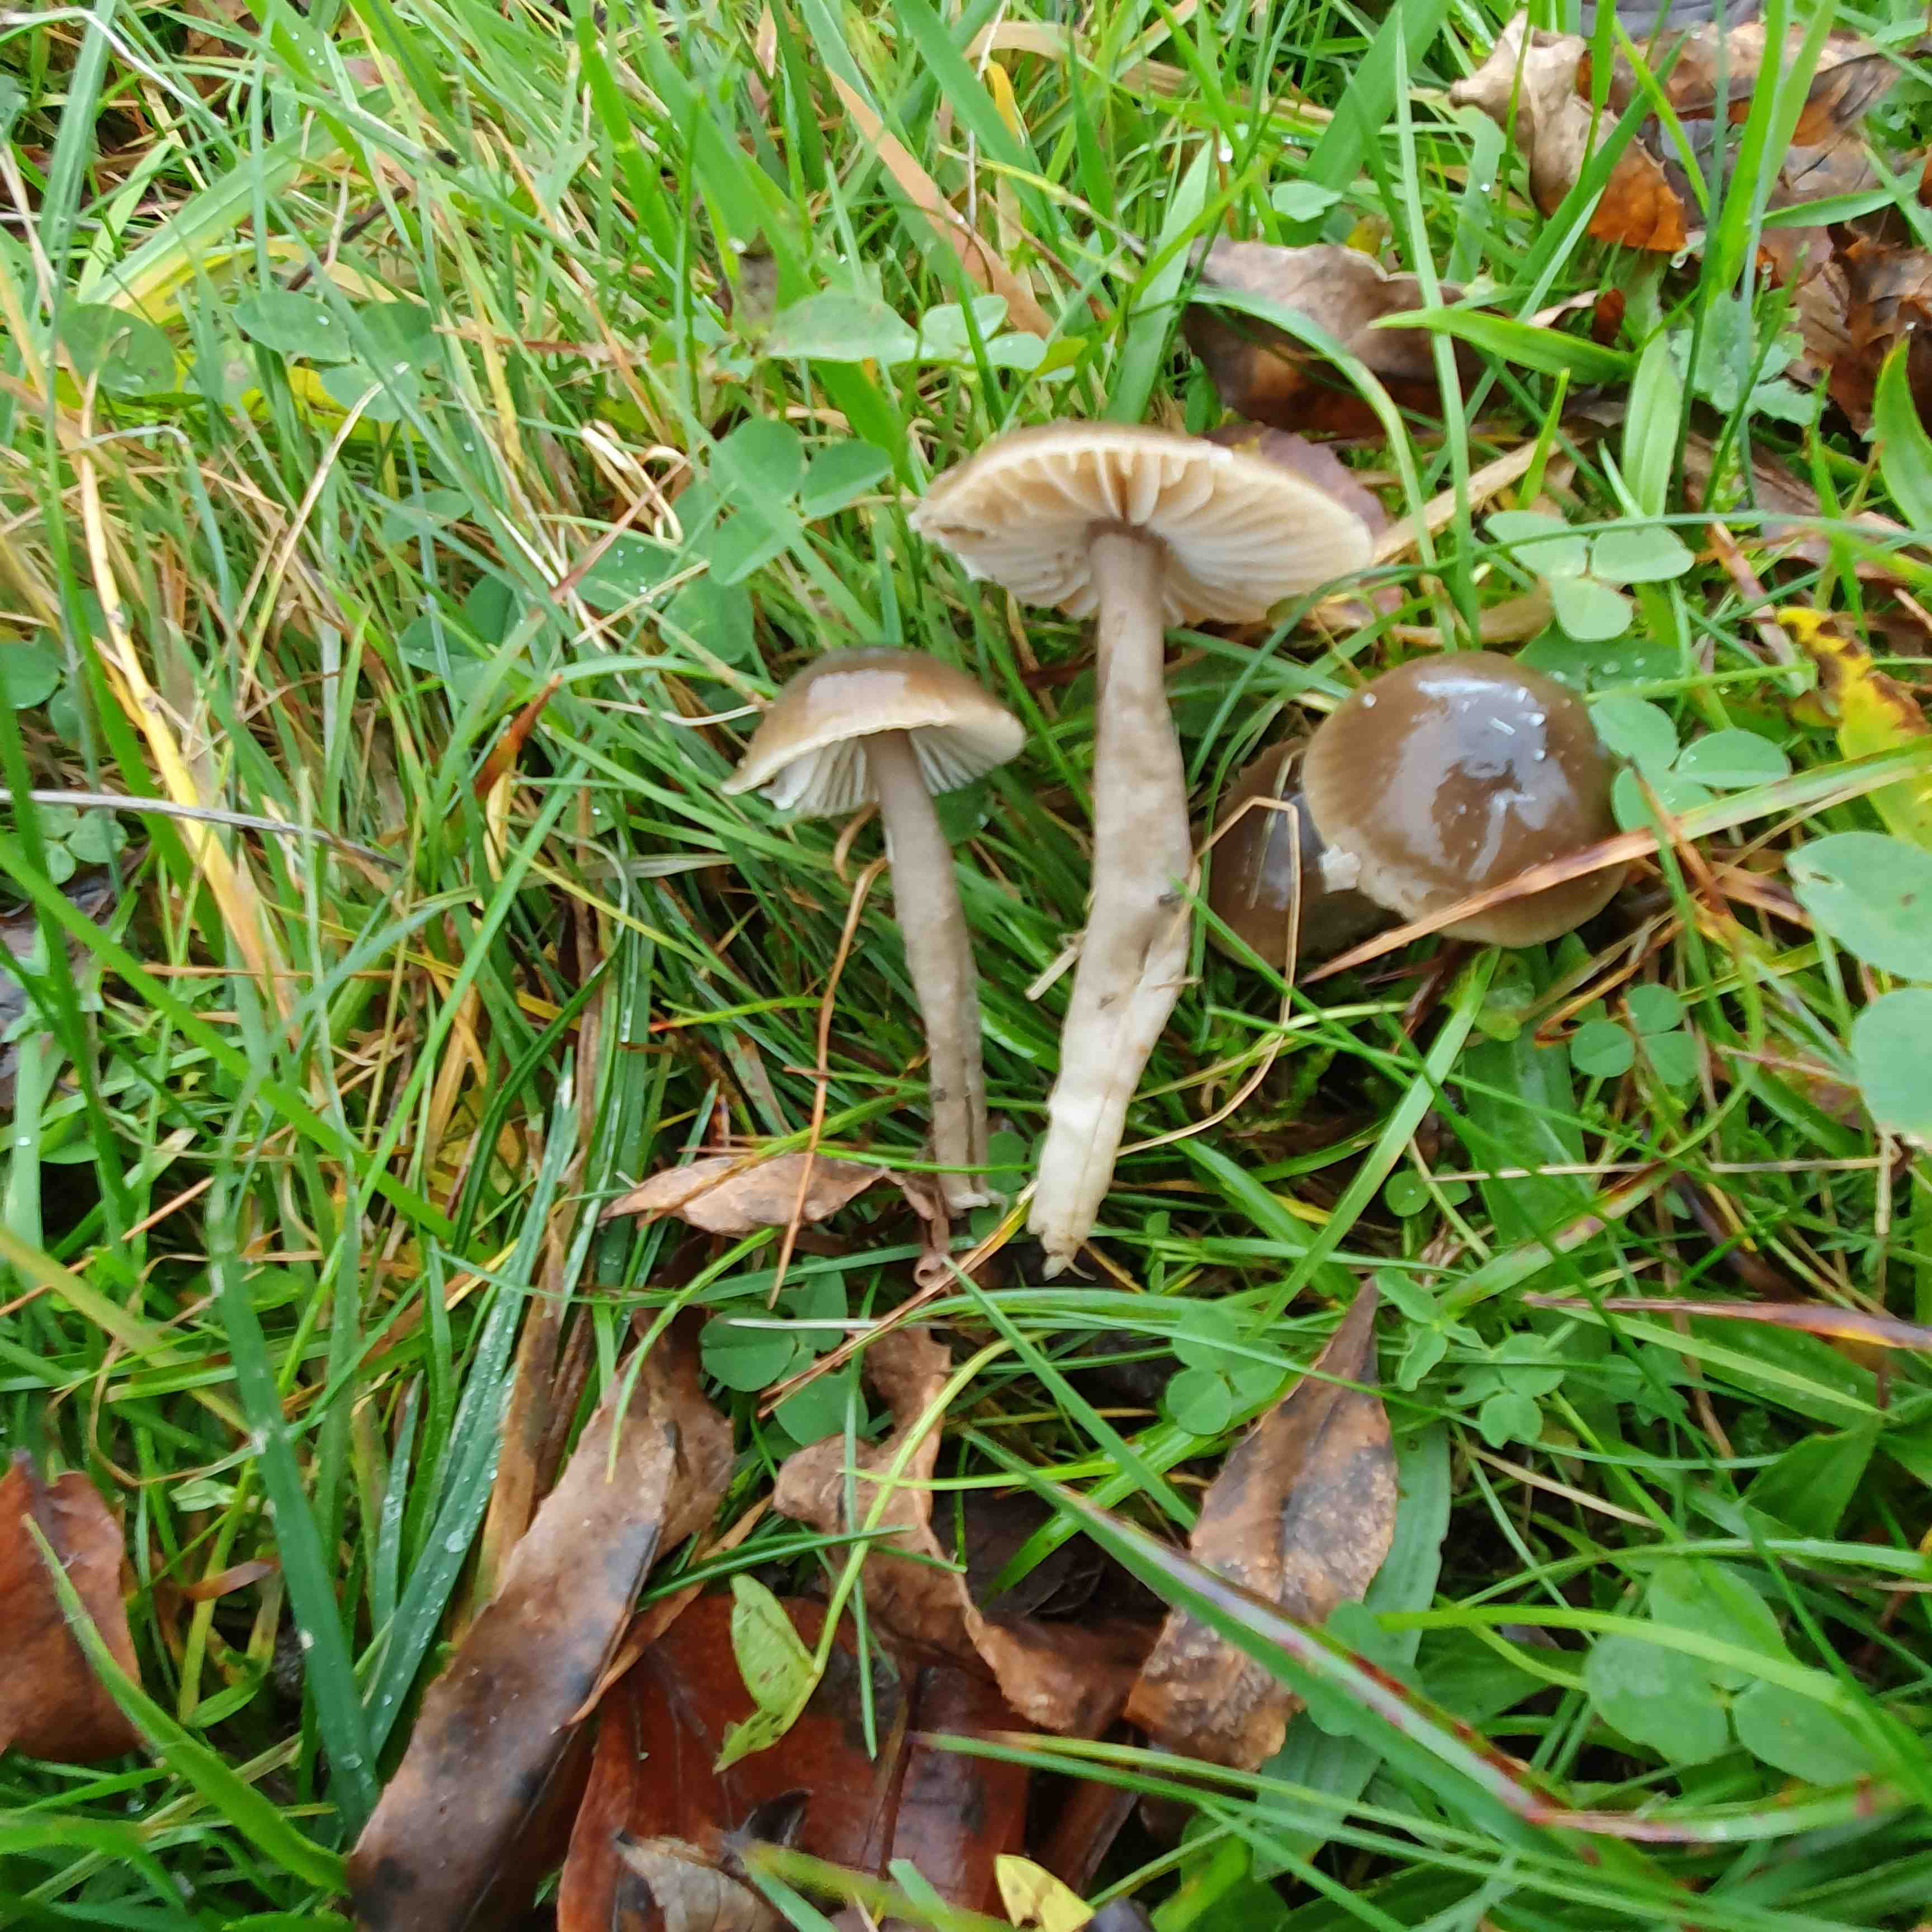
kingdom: Fungi
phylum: Basidiomycota
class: Agaricomycetes
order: Agaricales
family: Hygrophoraceae
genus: Gliophorus
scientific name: Gliophorus irrigatus
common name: slimet vokshat
